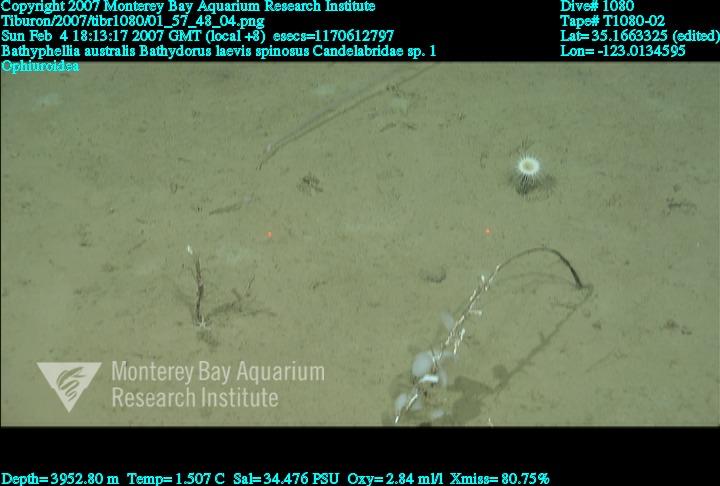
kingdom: Animalia
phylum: Porifera
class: Hexactinellida
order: Lyssacinosida
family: Rossellidae
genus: Bathydorus
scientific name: Bathydorus spinosus
